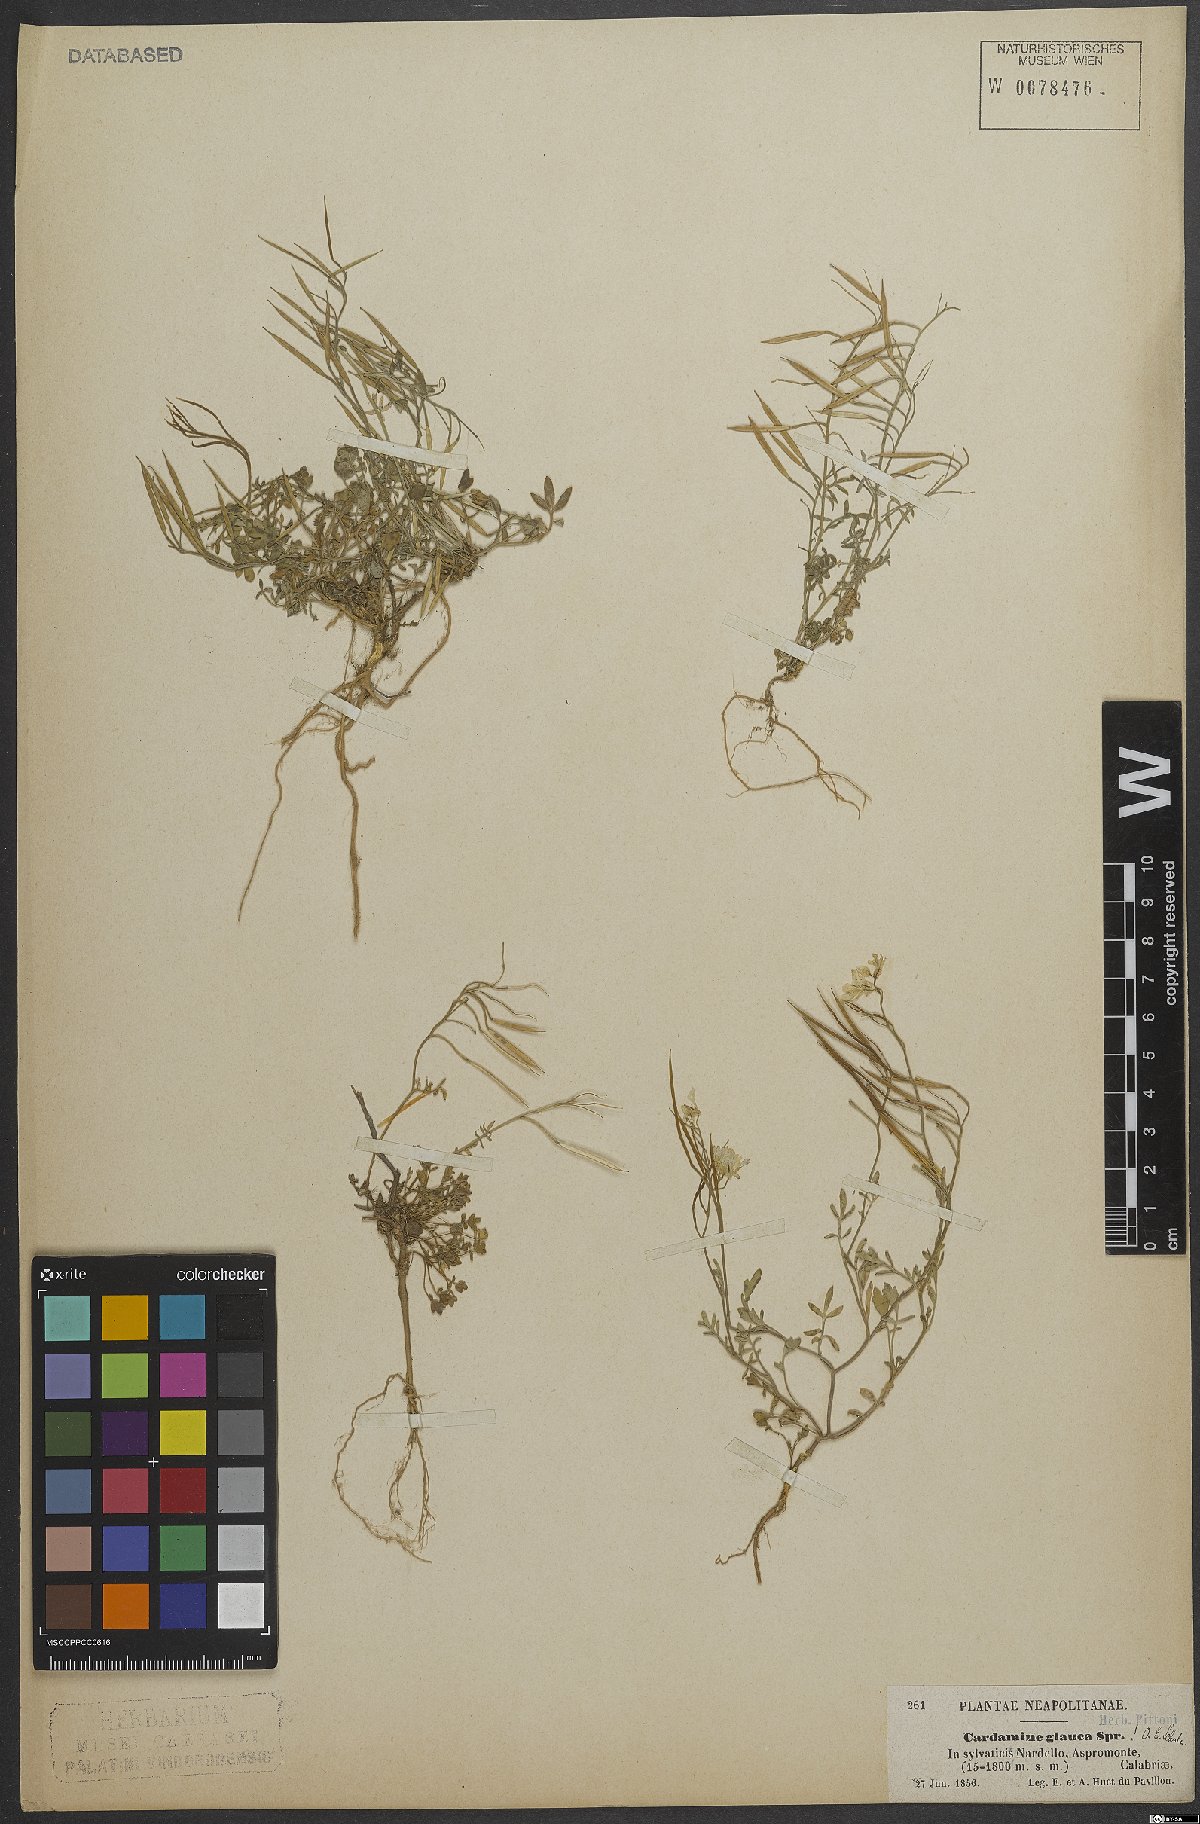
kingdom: Plantae
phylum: Tracheophyta
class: Magnoliopsida
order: Brassicales
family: Brassicaceae
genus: Cardamine
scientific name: Cardamine glauca
